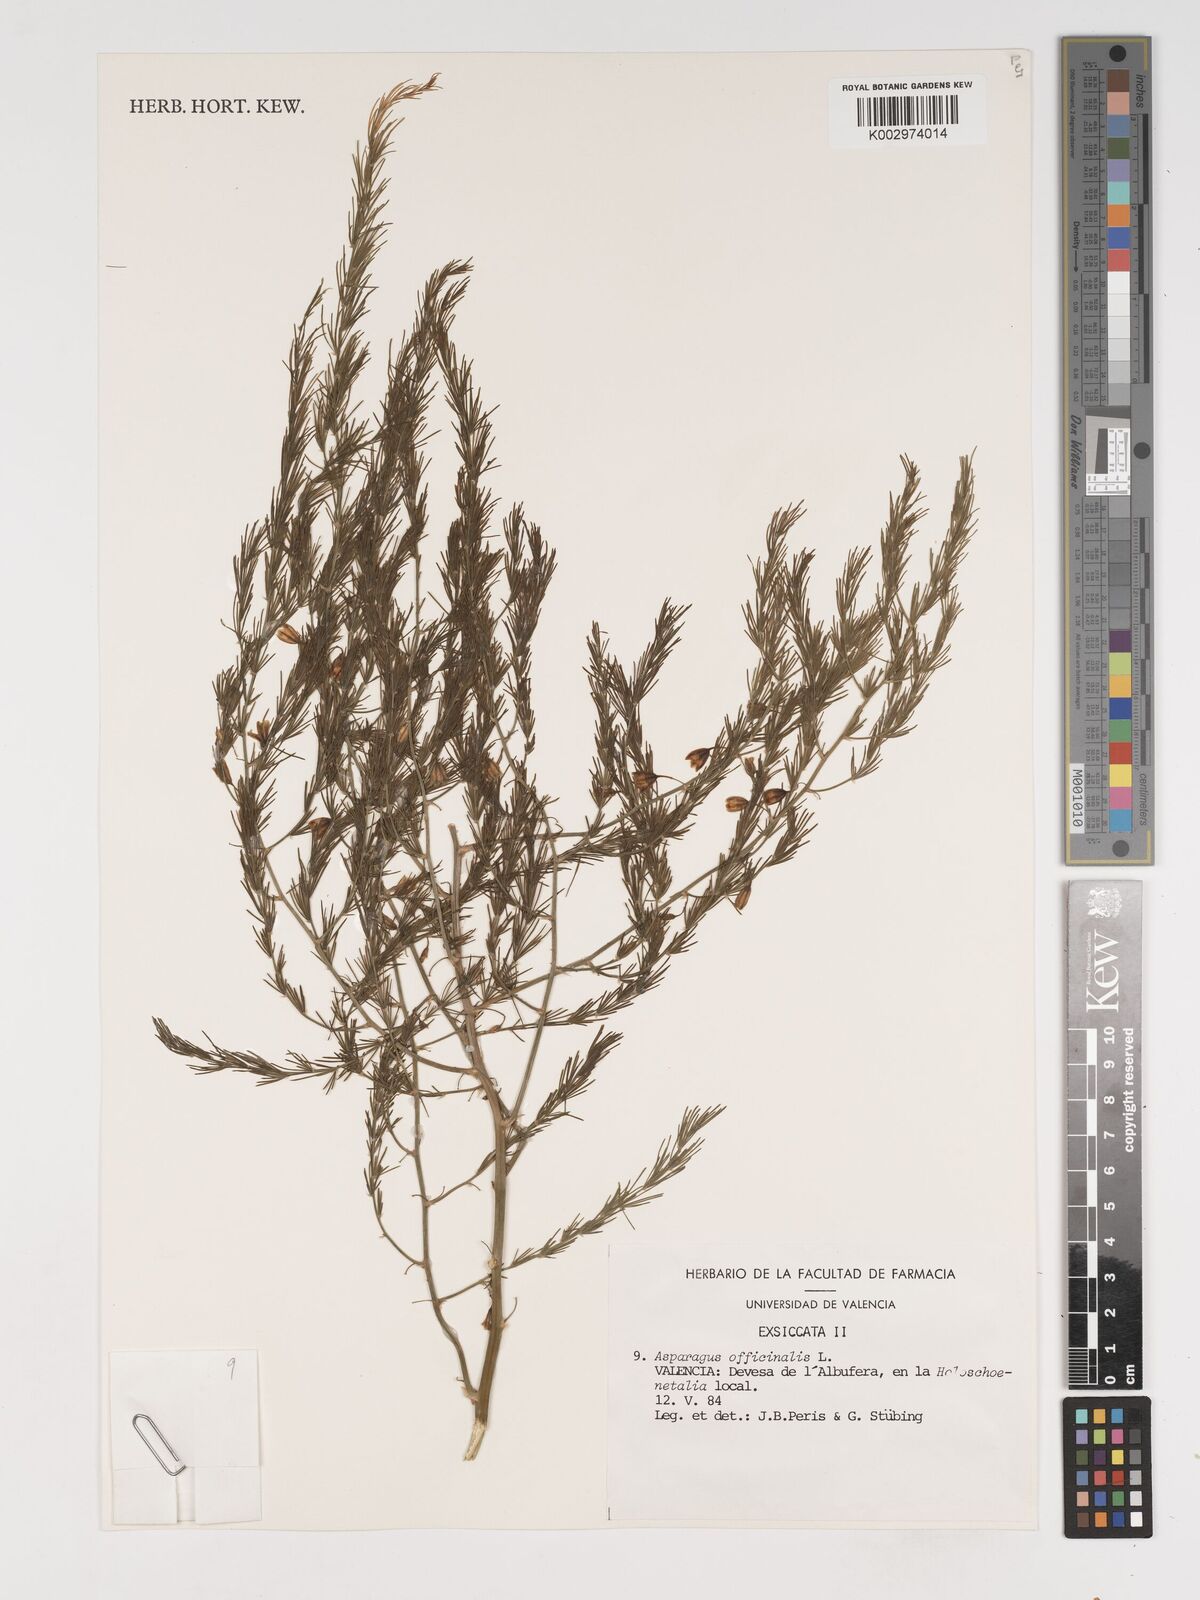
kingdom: Plantae
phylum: Tracheophyta
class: Liliopsida
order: Asparagales
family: Asparagaceae
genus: Asparagus
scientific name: Asparagus officinalis
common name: Garden asparagus
